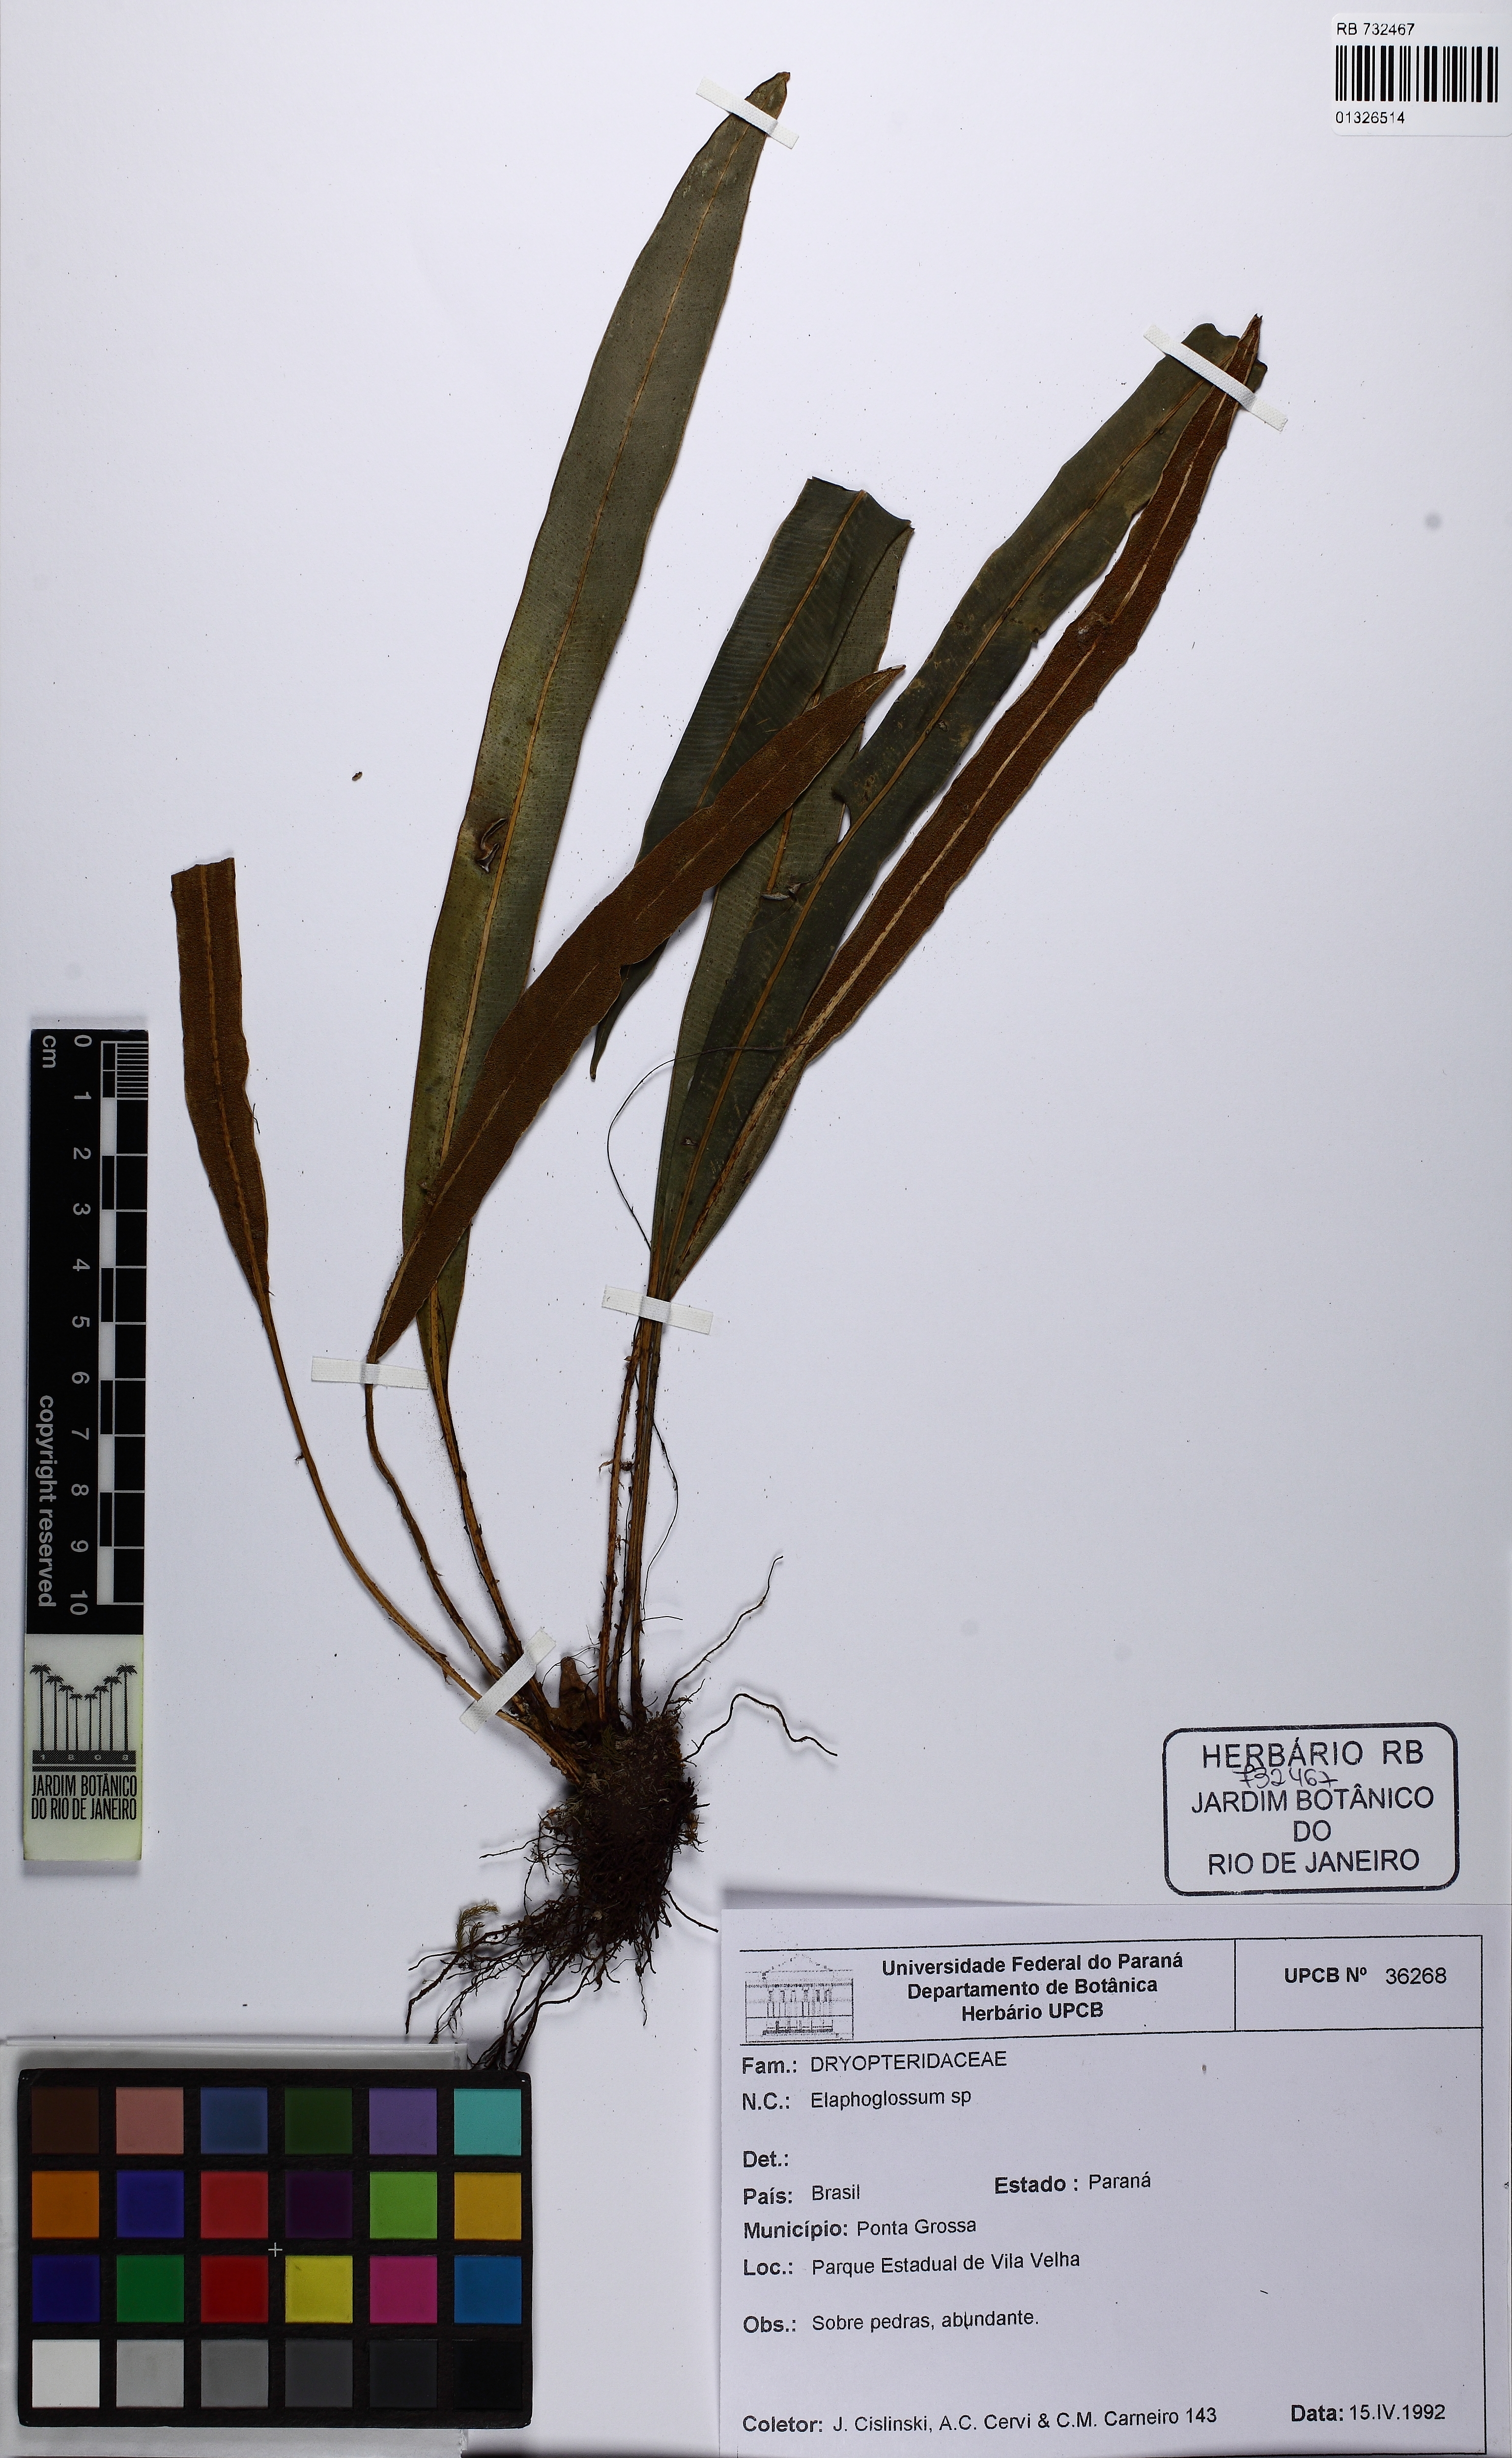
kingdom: Plantae
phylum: Tracheophyta
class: Polypodiopsida
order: Polypodiales
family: Dryopteridaceae
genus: Elaphoglossum
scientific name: Elaphoglossum
